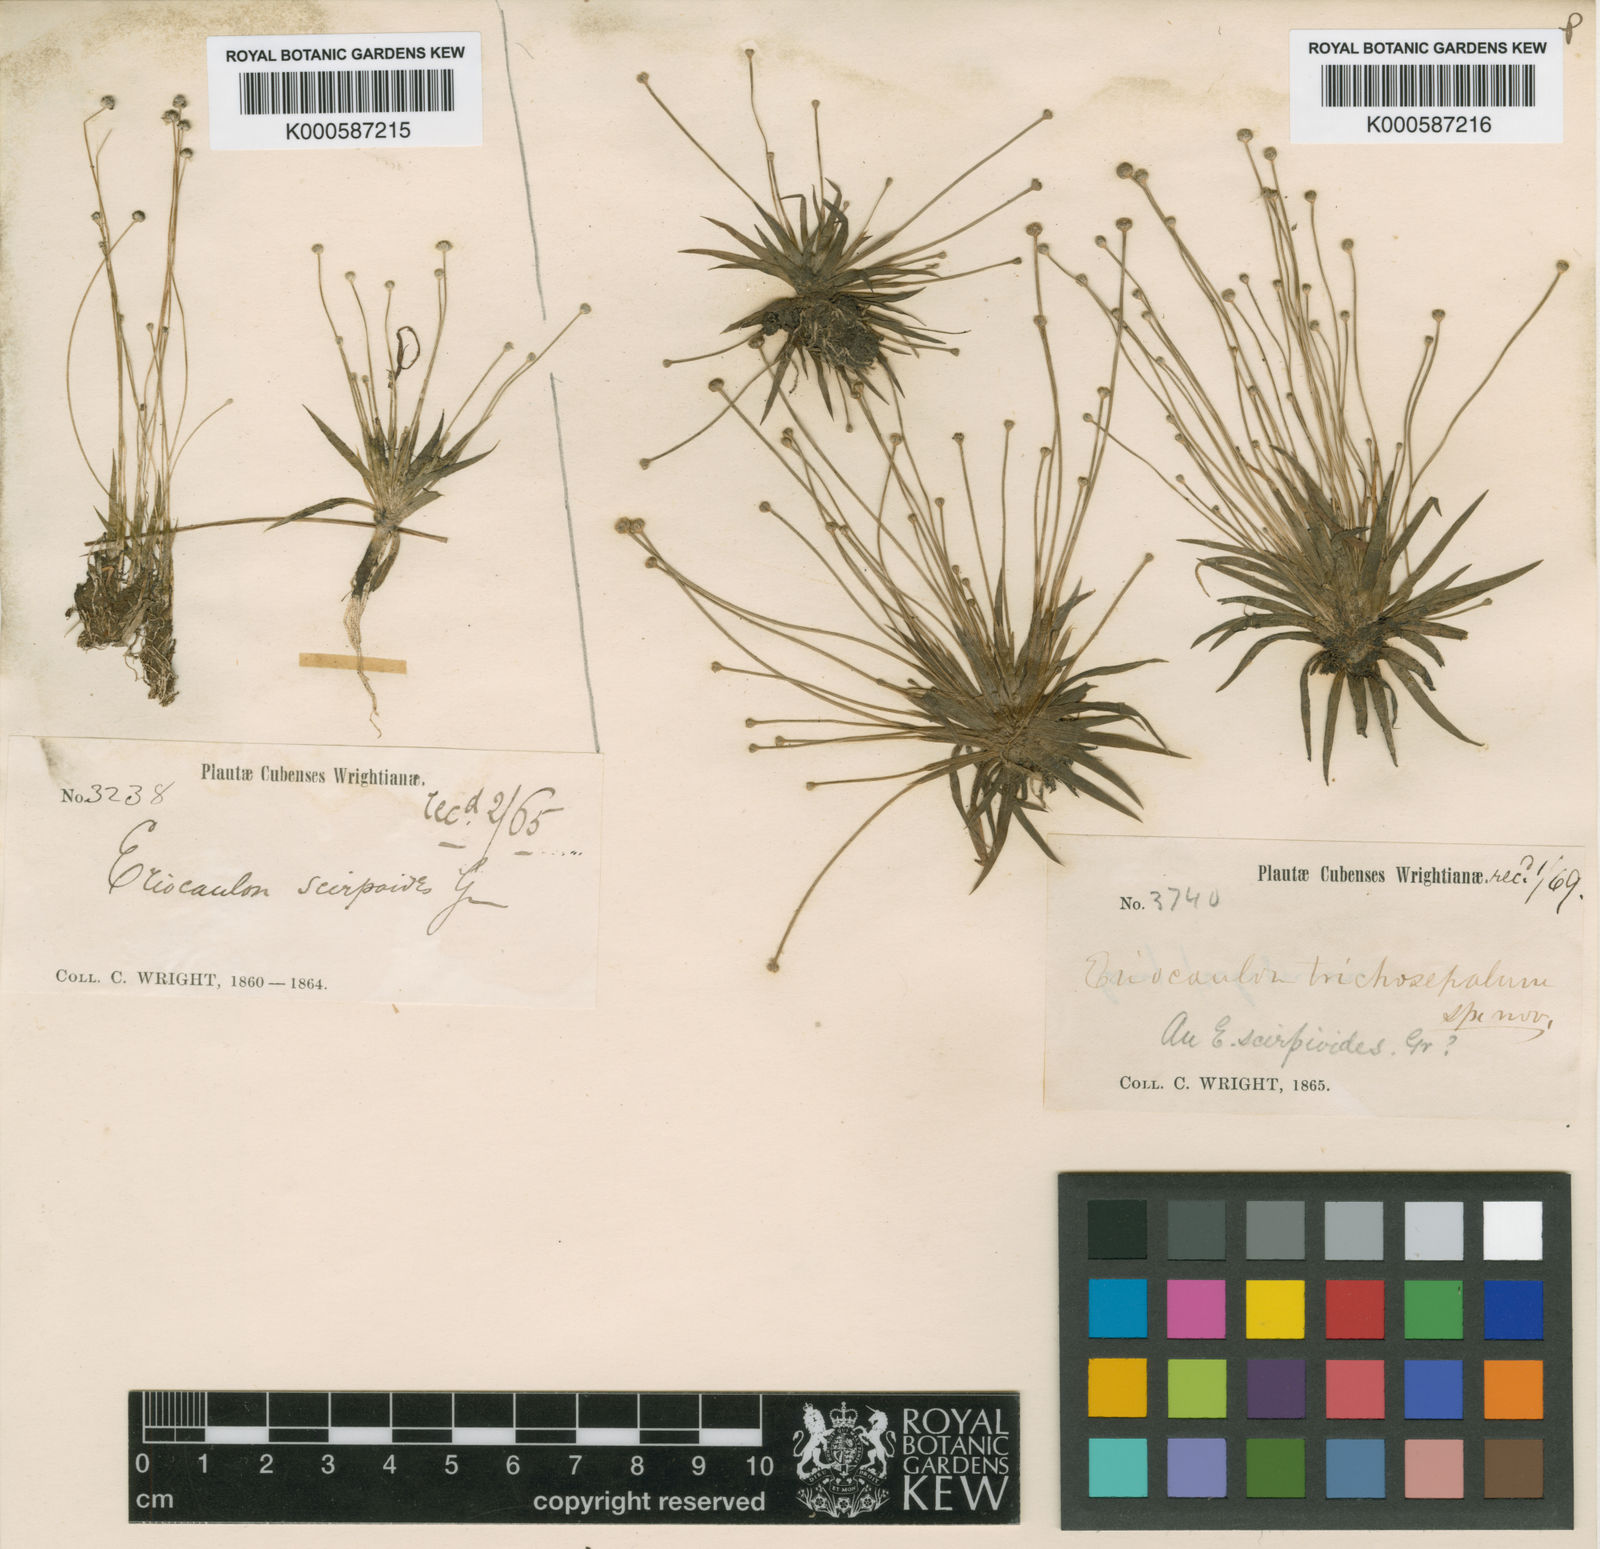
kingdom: Plantae
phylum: Tracheophyta
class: Liliopsida
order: Poales
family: Eriocaulaceae
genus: Eriocaulon
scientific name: Eriocaulon fuliginosum
